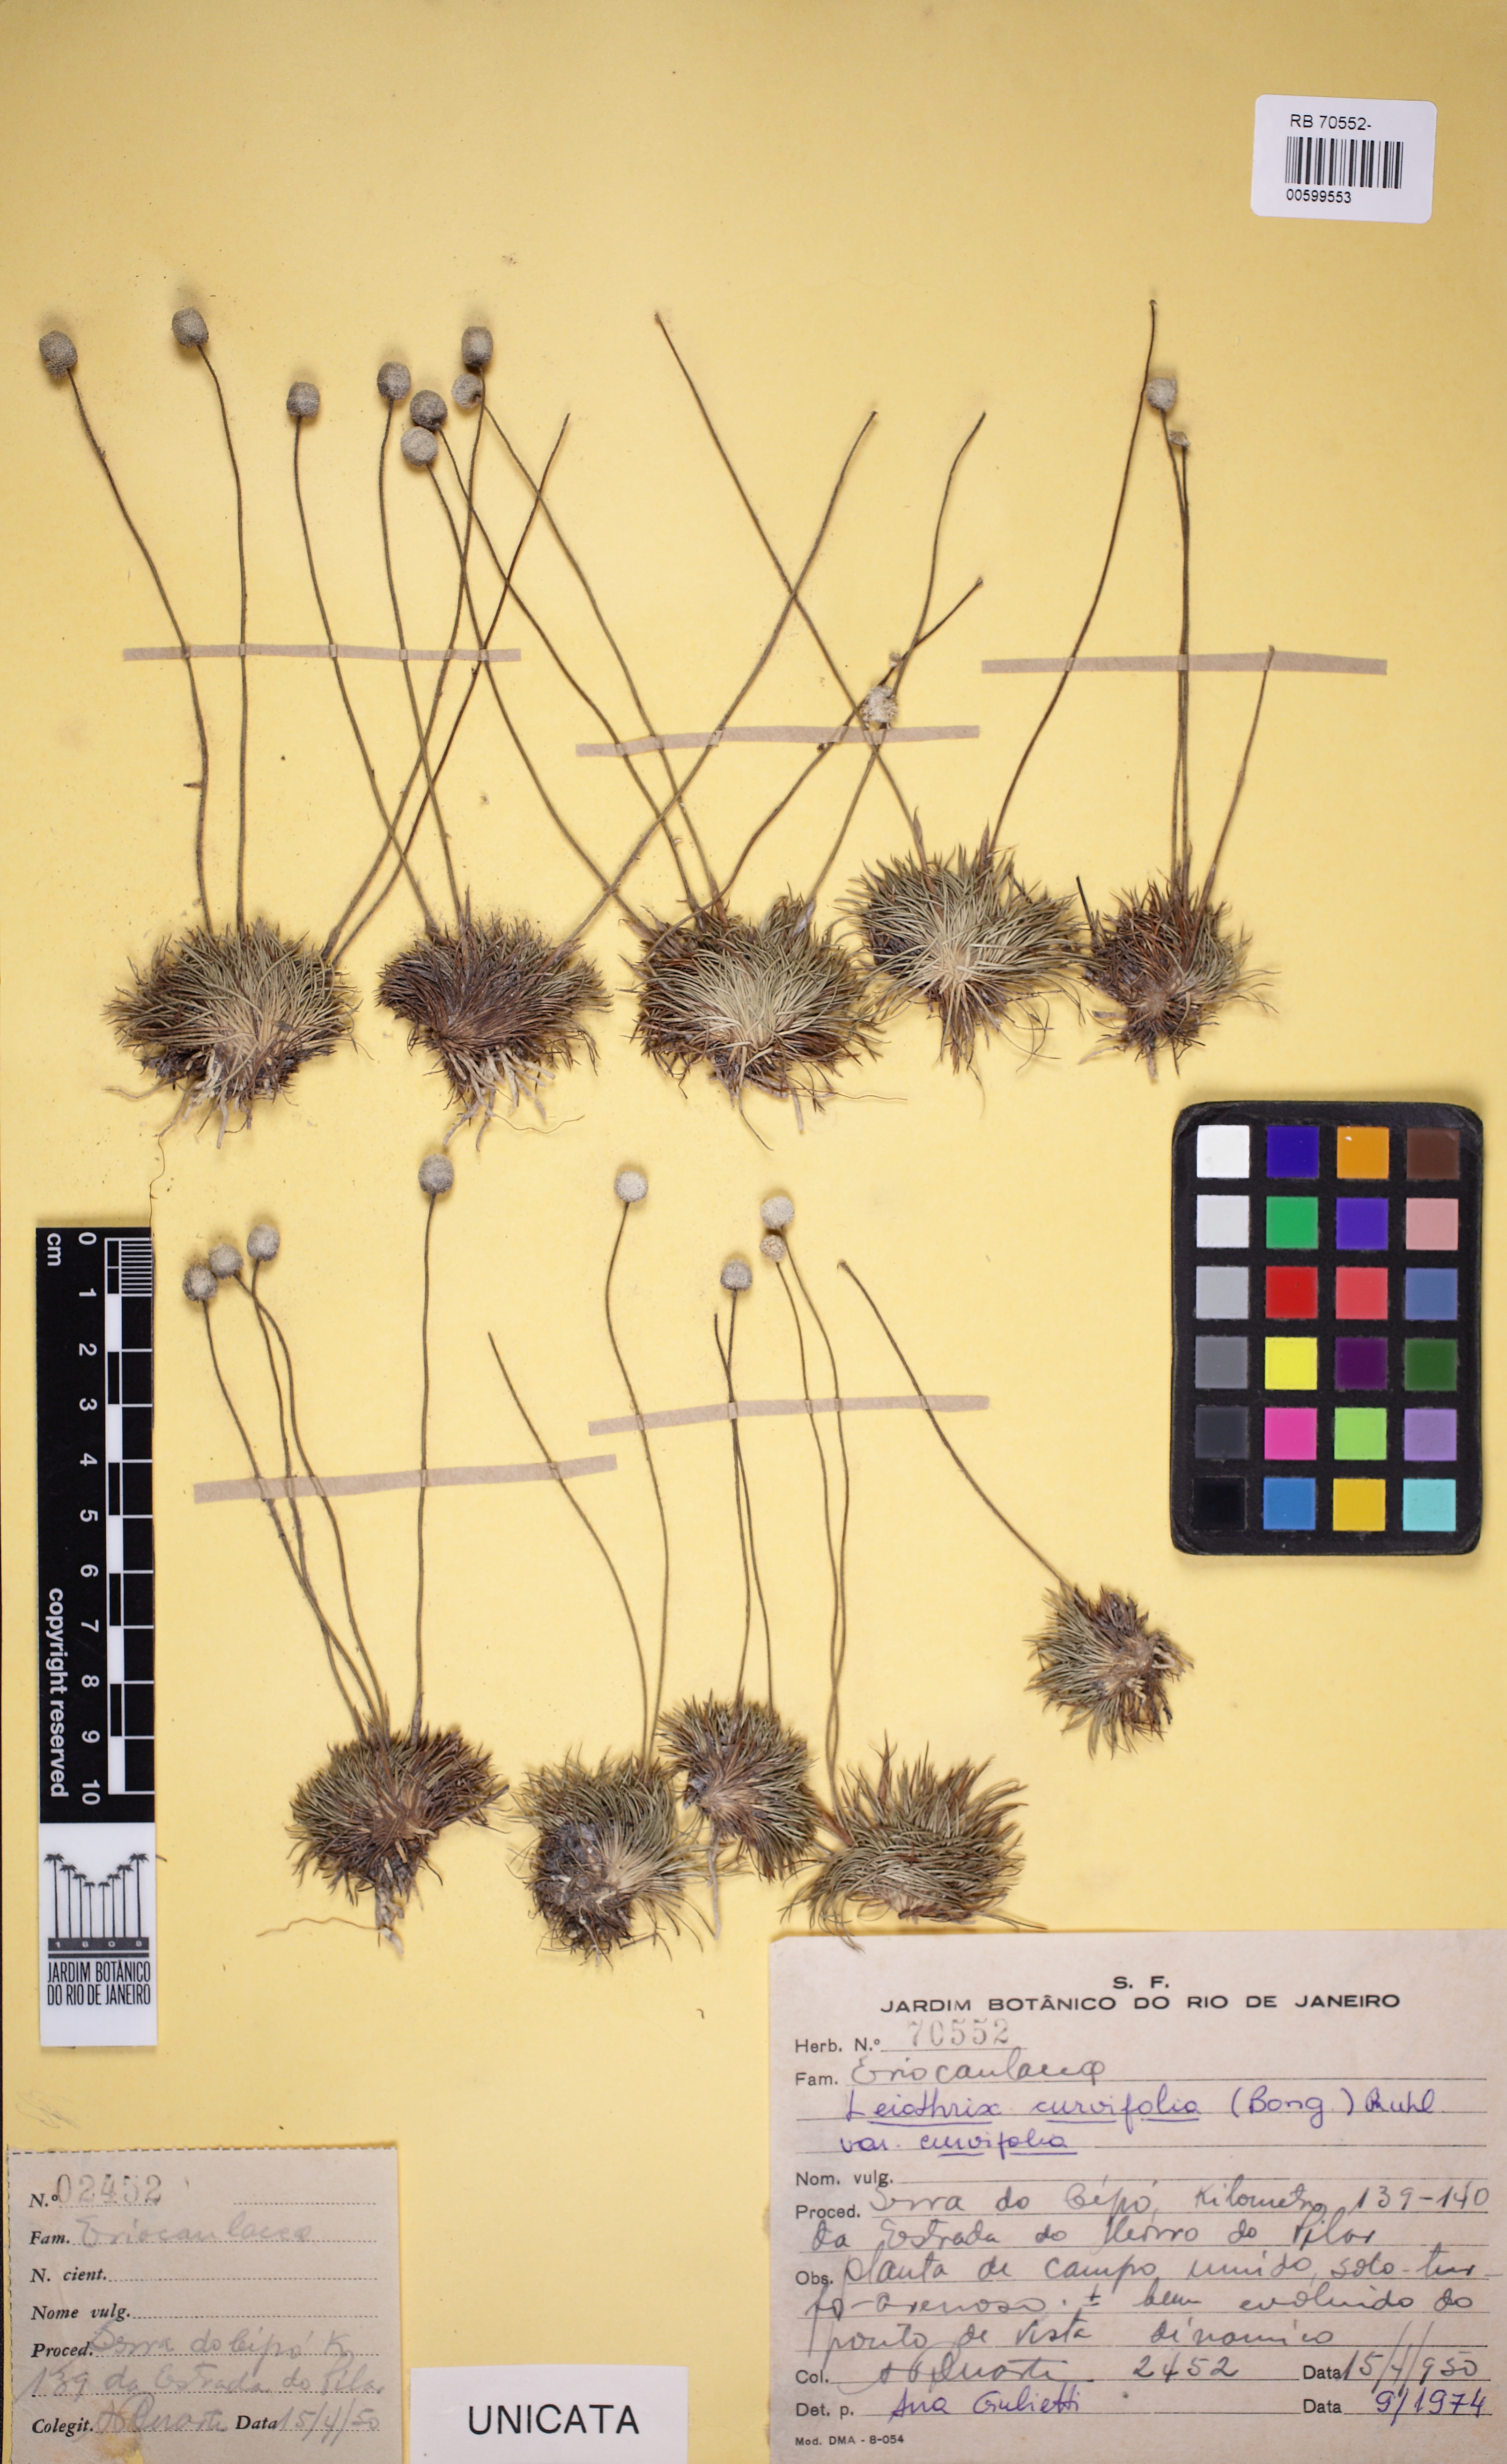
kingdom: Plantae
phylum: Tracheophyta
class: Liliopsida
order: Poales
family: Eriocaulaceae
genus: Leiothrix
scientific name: Leiothrix curvifolia
